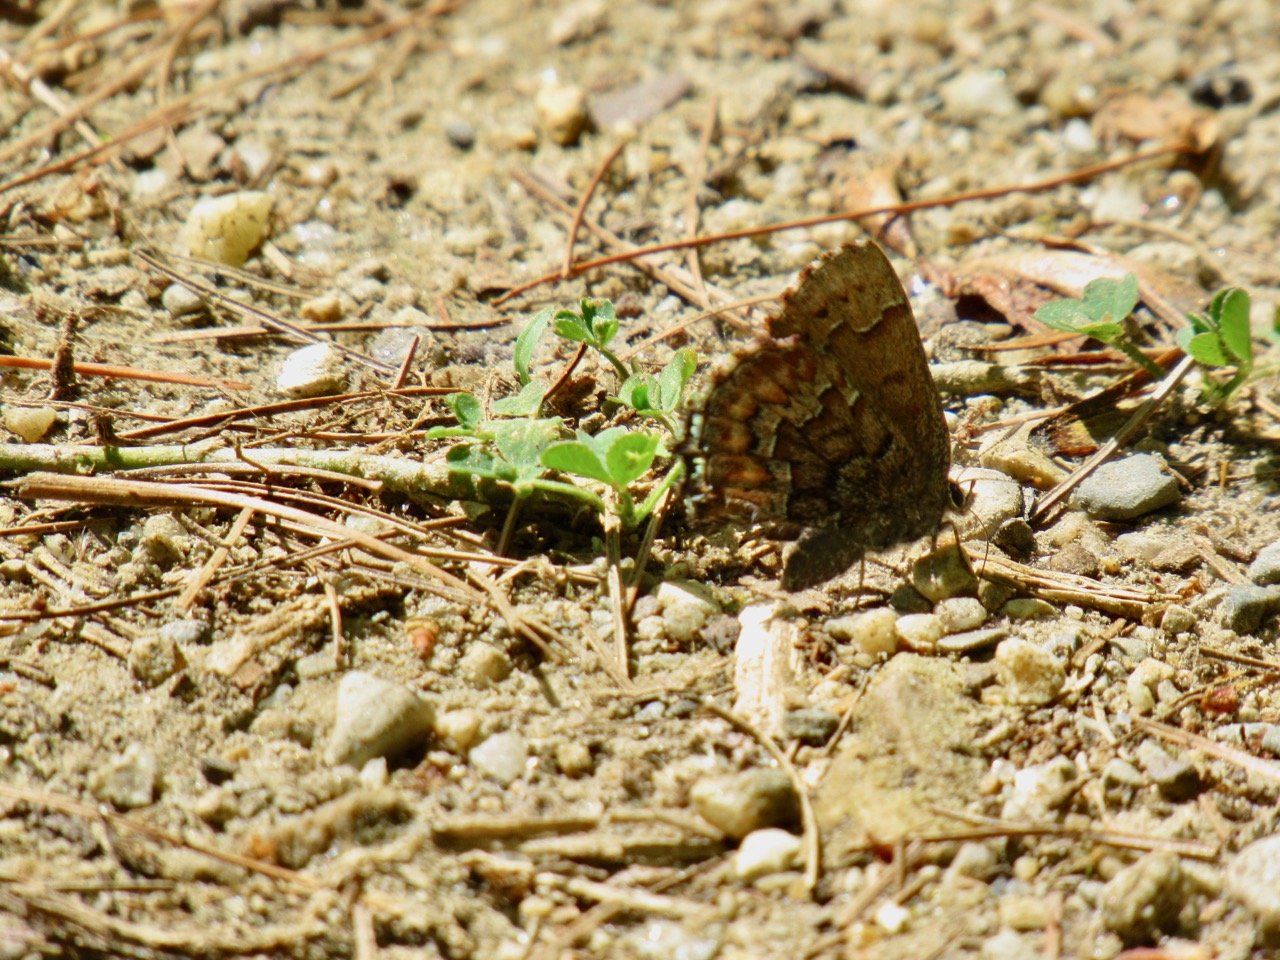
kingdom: Animalia
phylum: Arthropoda
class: Insecta
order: Lepidoptera
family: Lycaenidae
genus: Incisalia
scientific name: Incisalia niphon
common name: Eastern Pine Elfin
